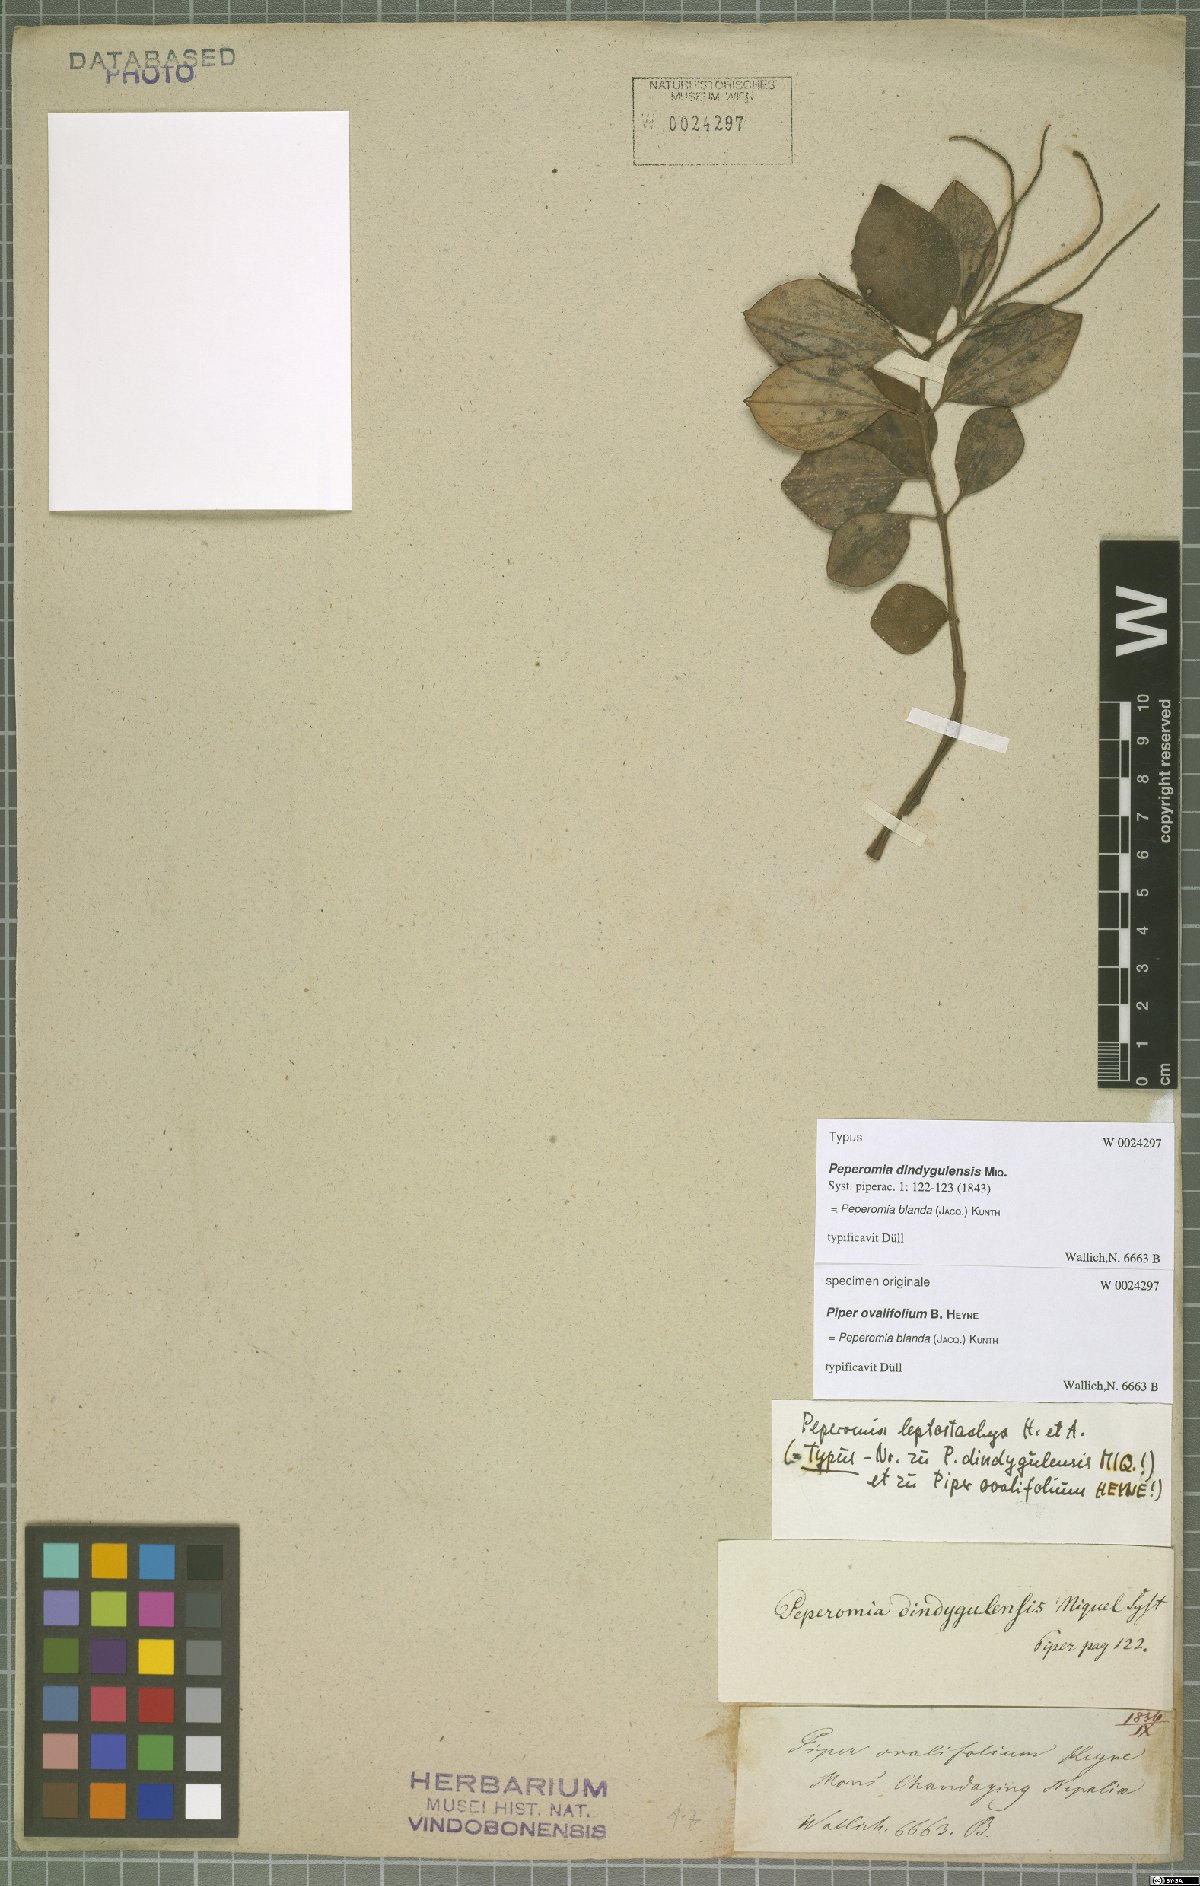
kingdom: Plantae
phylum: Tracheophyta
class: Magnoliopsida
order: Piperales
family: Piperaceae
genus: Peperomia
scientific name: Peperomia blanda
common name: Arid-land peperomia
